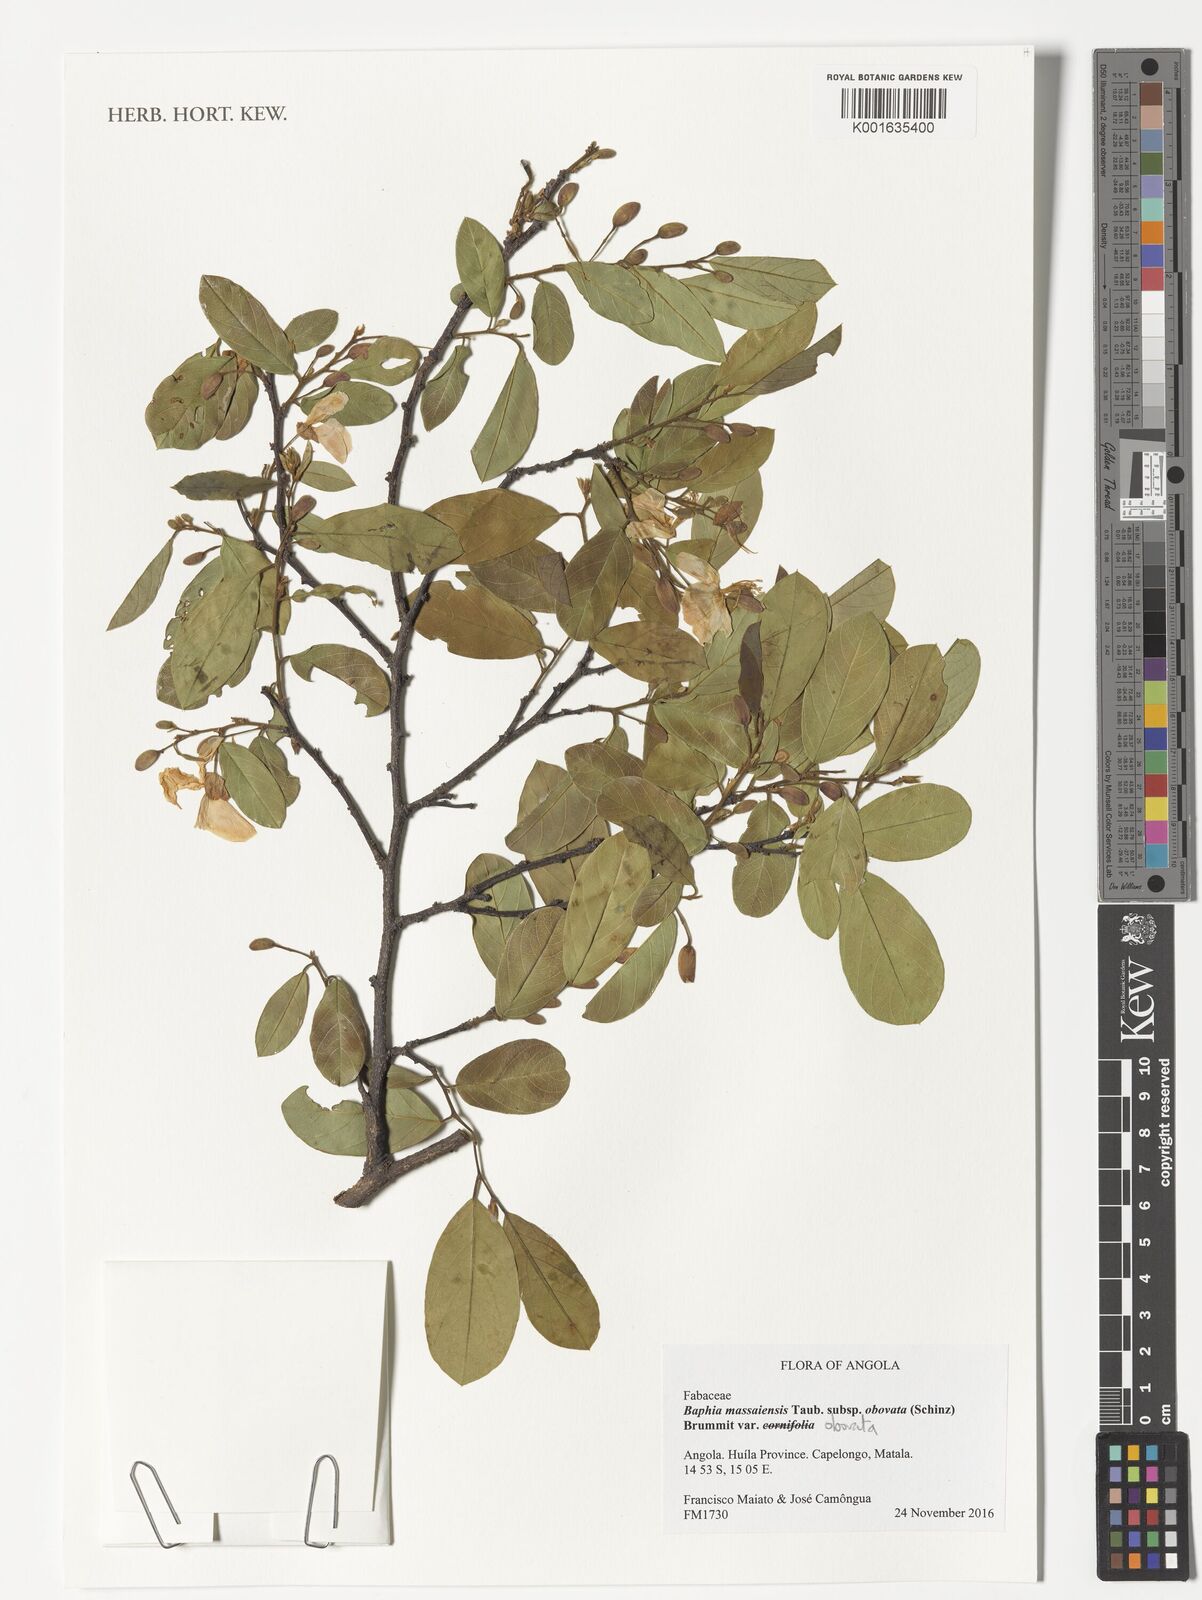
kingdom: Plantae
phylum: Tracheophyta
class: Magnoliopsida
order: Fabales
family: Fabaceae
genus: Baphia
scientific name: Baphia massaiensis
